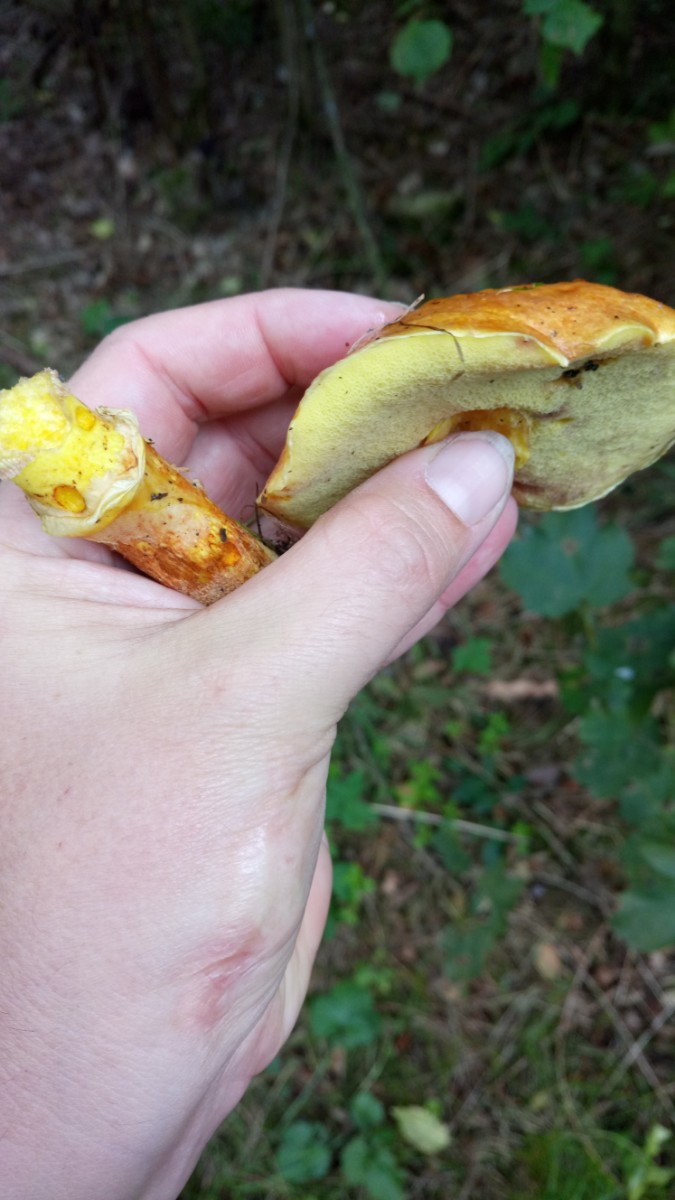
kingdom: Fungi
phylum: Basidiomycota
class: Agaricomycetes
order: Boletales
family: Suillaceae
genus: Suillus
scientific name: Suillus grevillei
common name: lærke-slimrørhat
